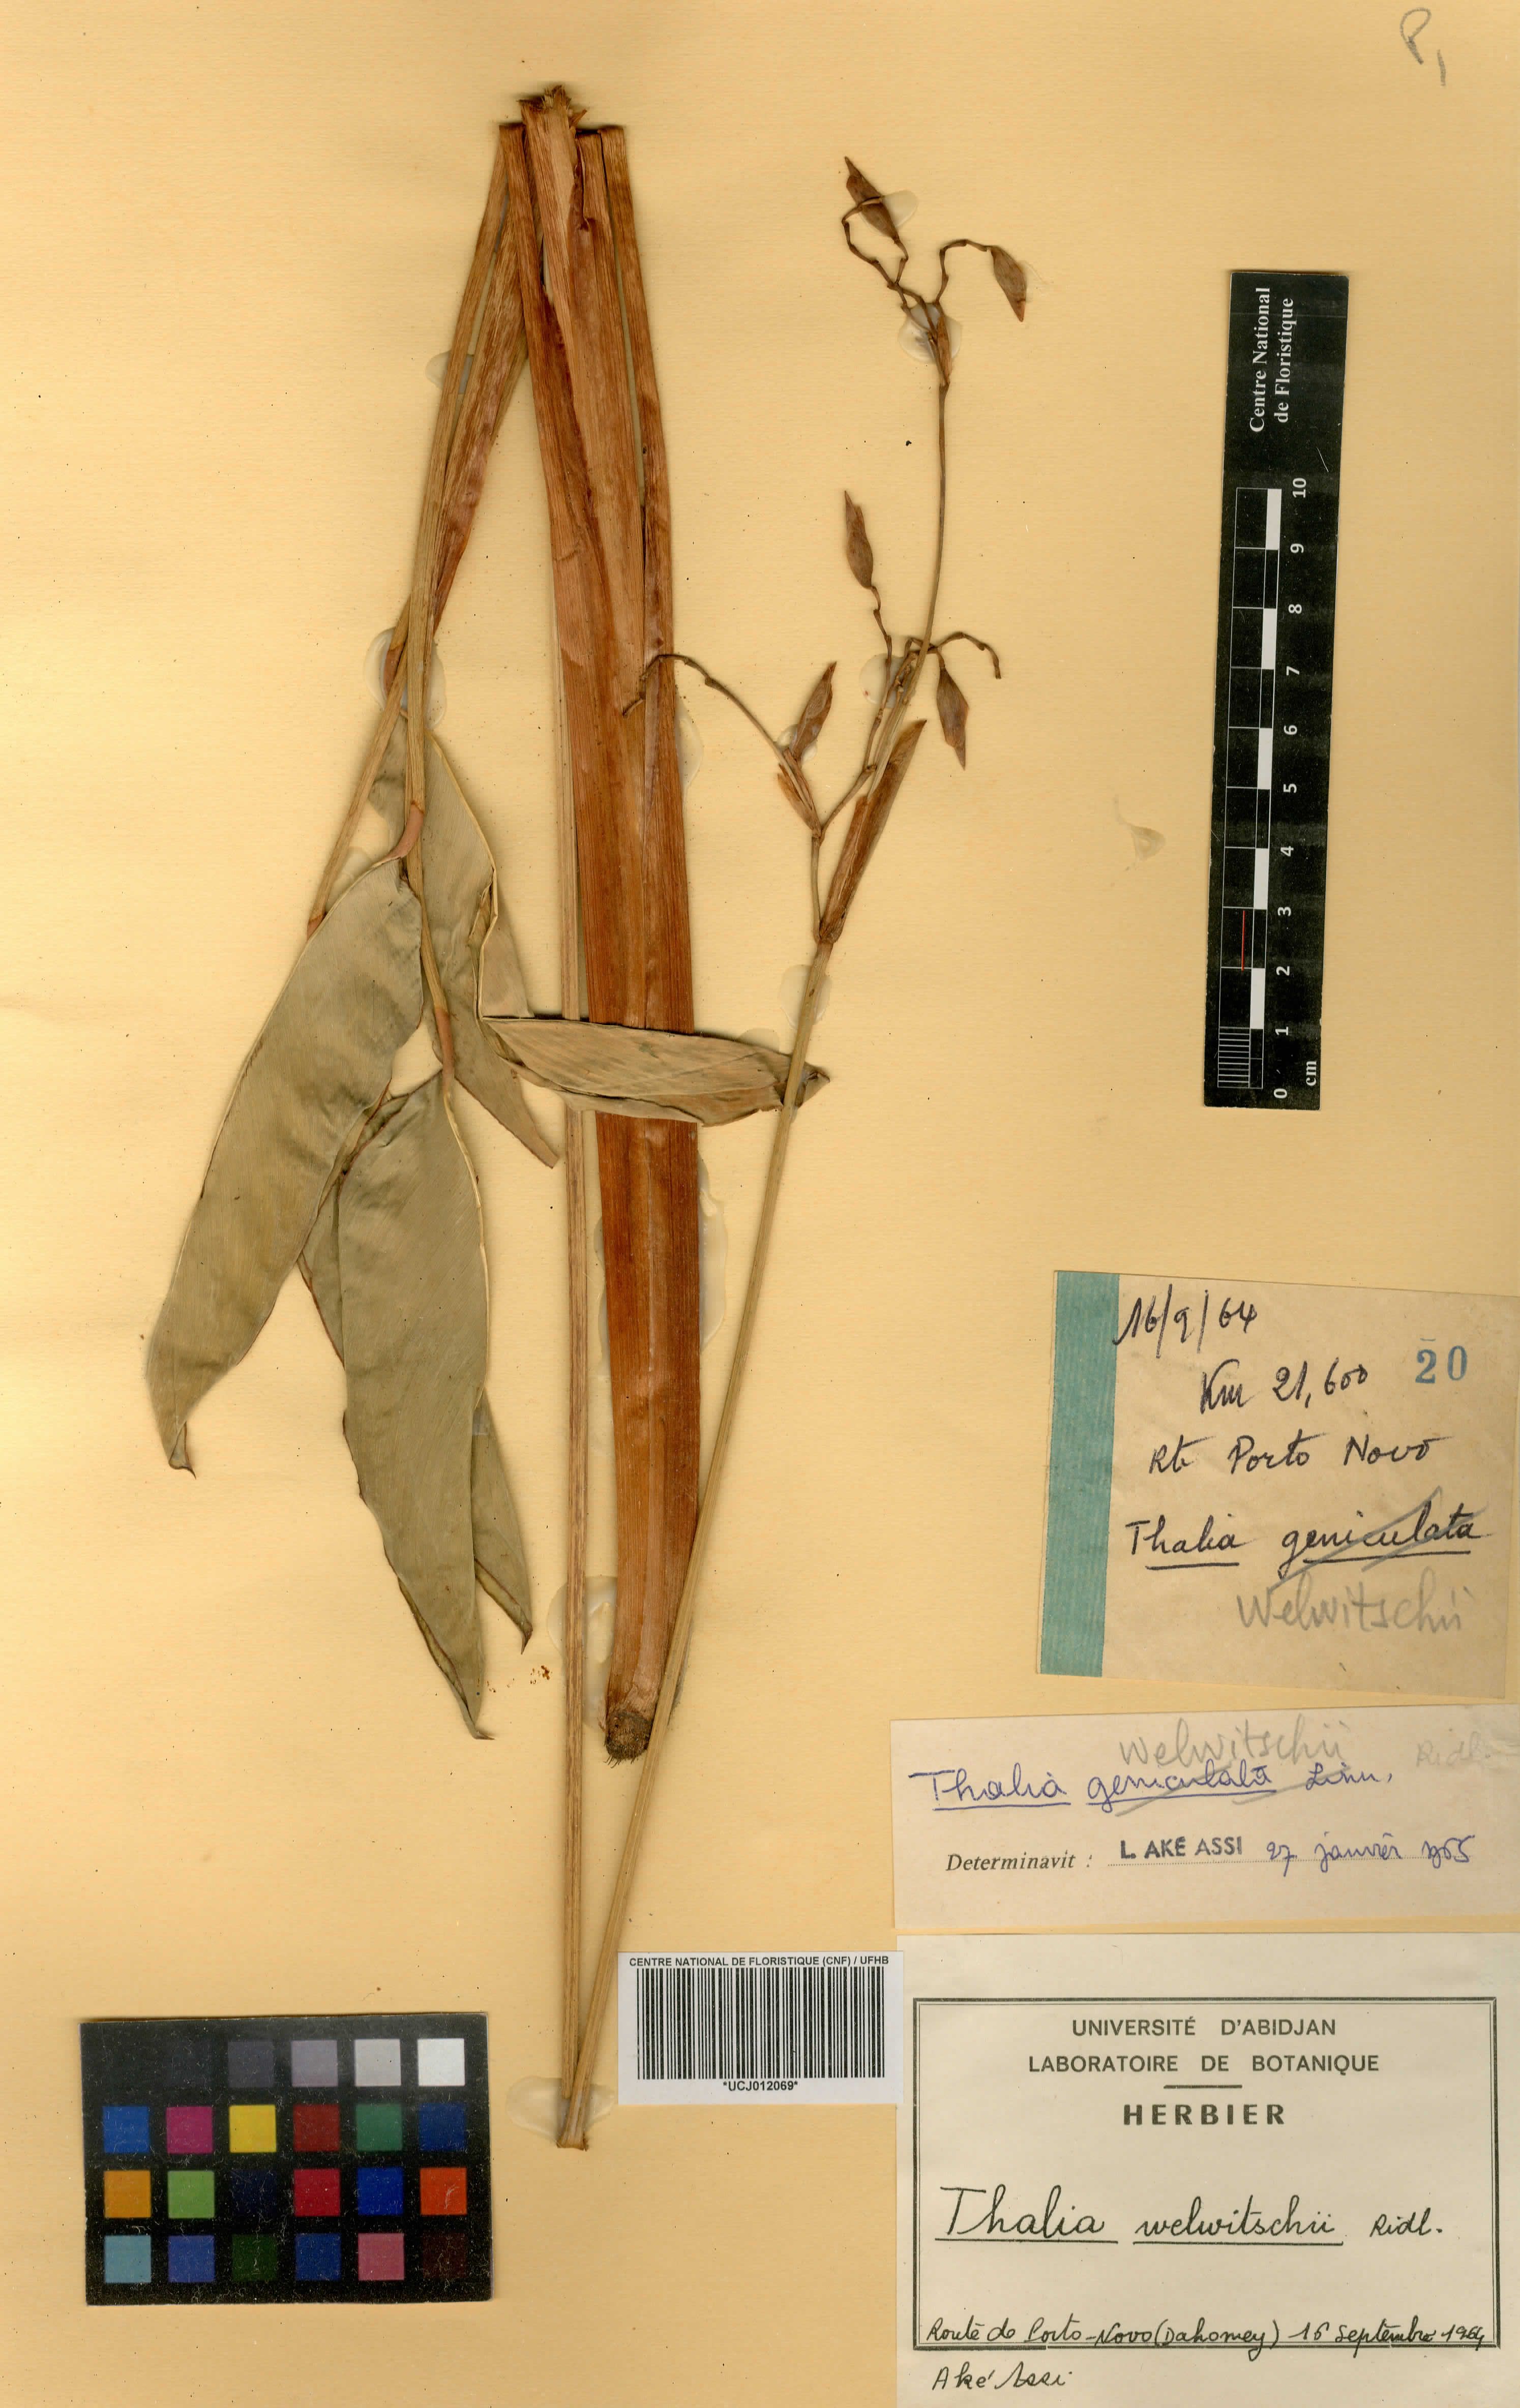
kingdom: Plantae
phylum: Tracheophyta
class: Liliopsida
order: Zingiberales
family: Marantaceae
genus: Thalia
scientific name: Thalia geniculata
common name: Arrowroot
